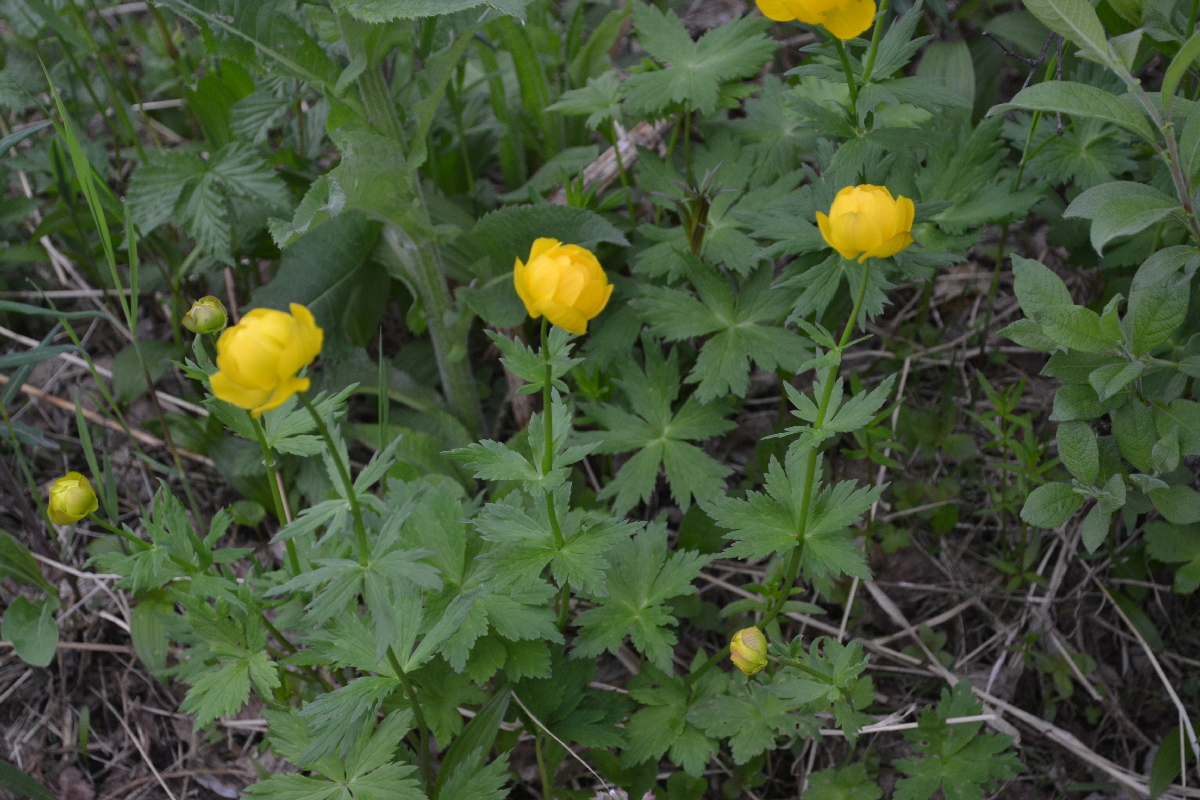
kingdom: Plantae
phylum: Tracheophyta
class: Magnoliopsida
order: Ranunculales
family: Ranunculaceae
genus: Trollius
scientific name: Trollius apertus
